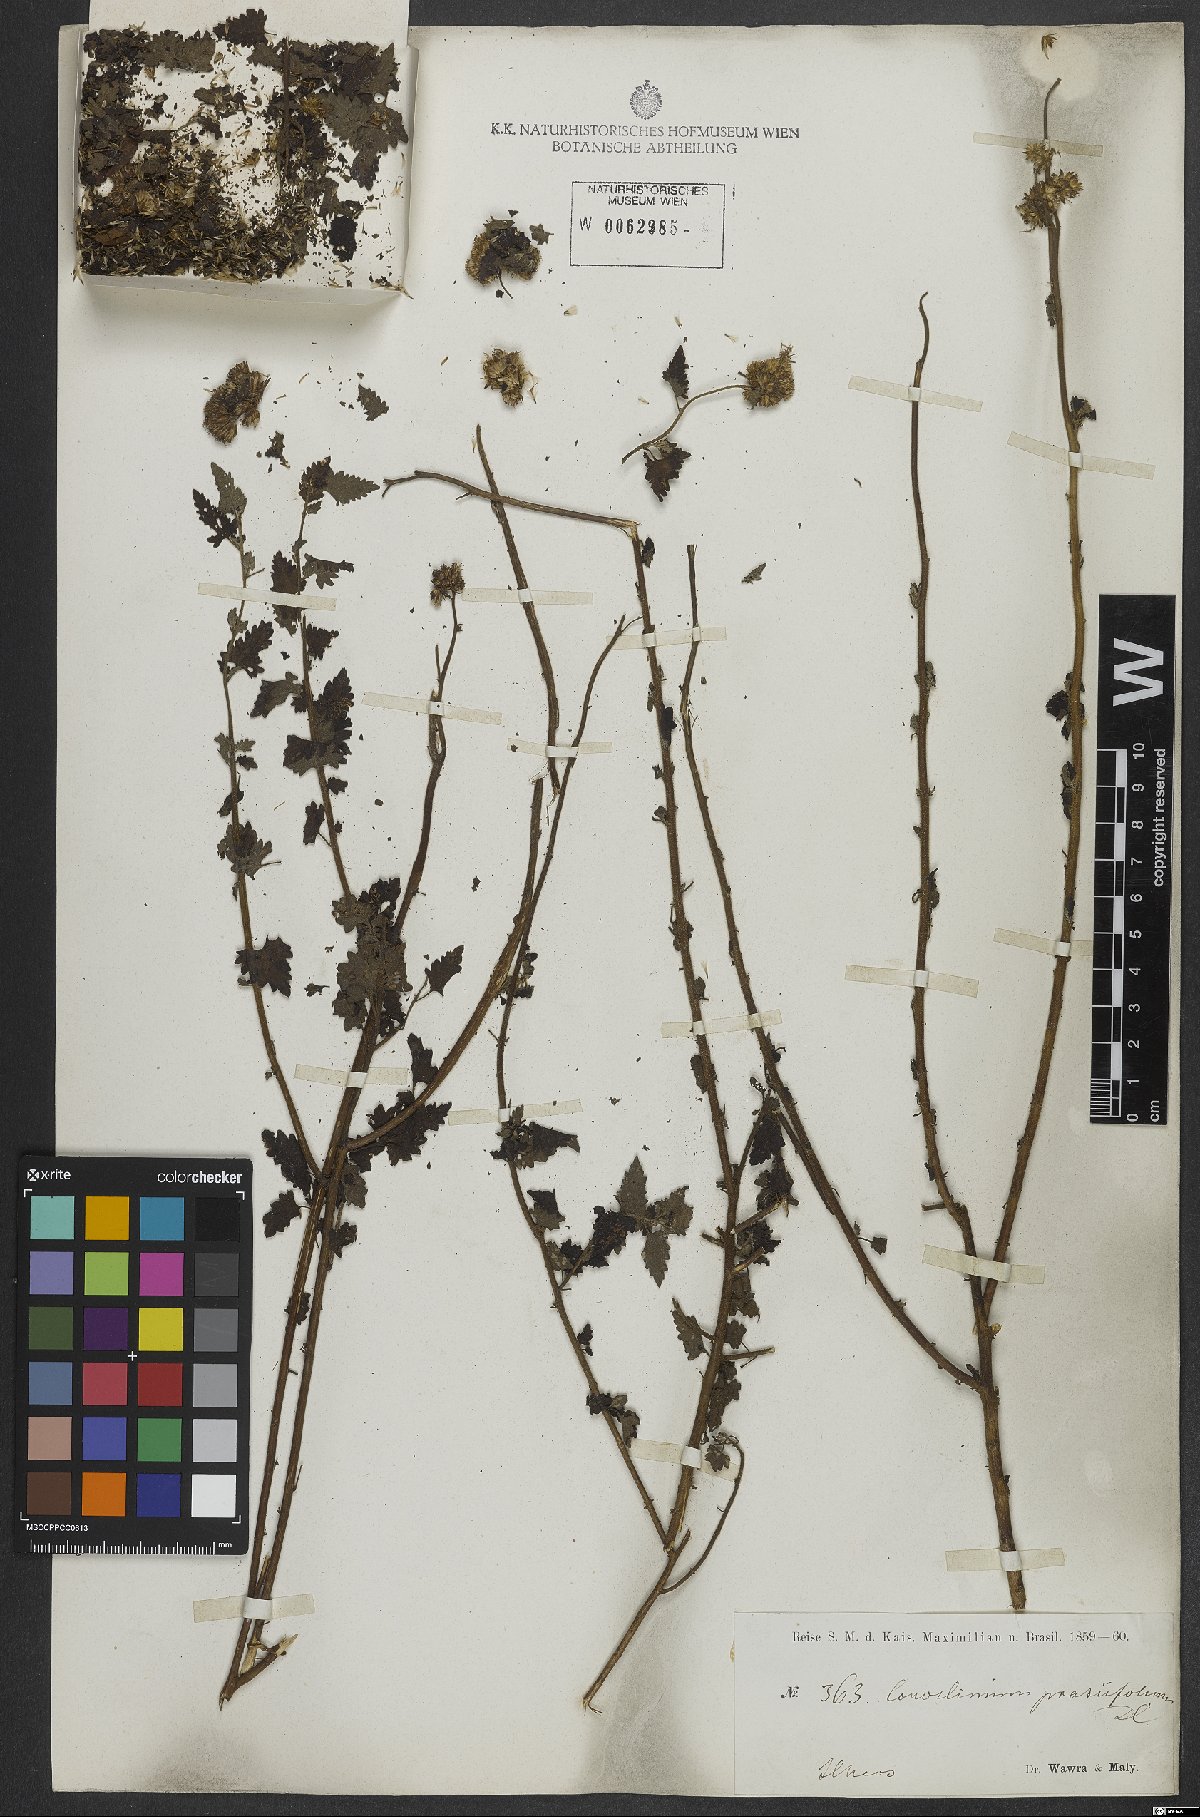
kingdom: Plantae
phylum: Tracheophyta
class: Magnoliopsida
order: Asterales
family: Asteraceae
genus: Conocliniopsis
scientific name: Conocliniopsis grossedentata
